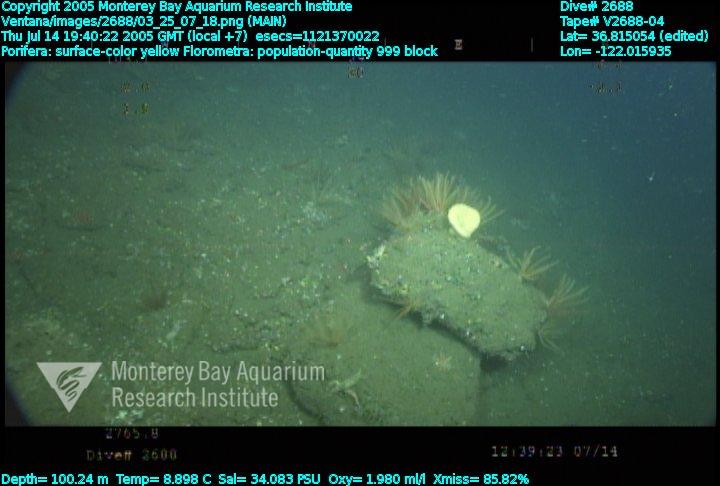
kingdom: Animalia
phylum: Porifera
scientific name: Porifera
